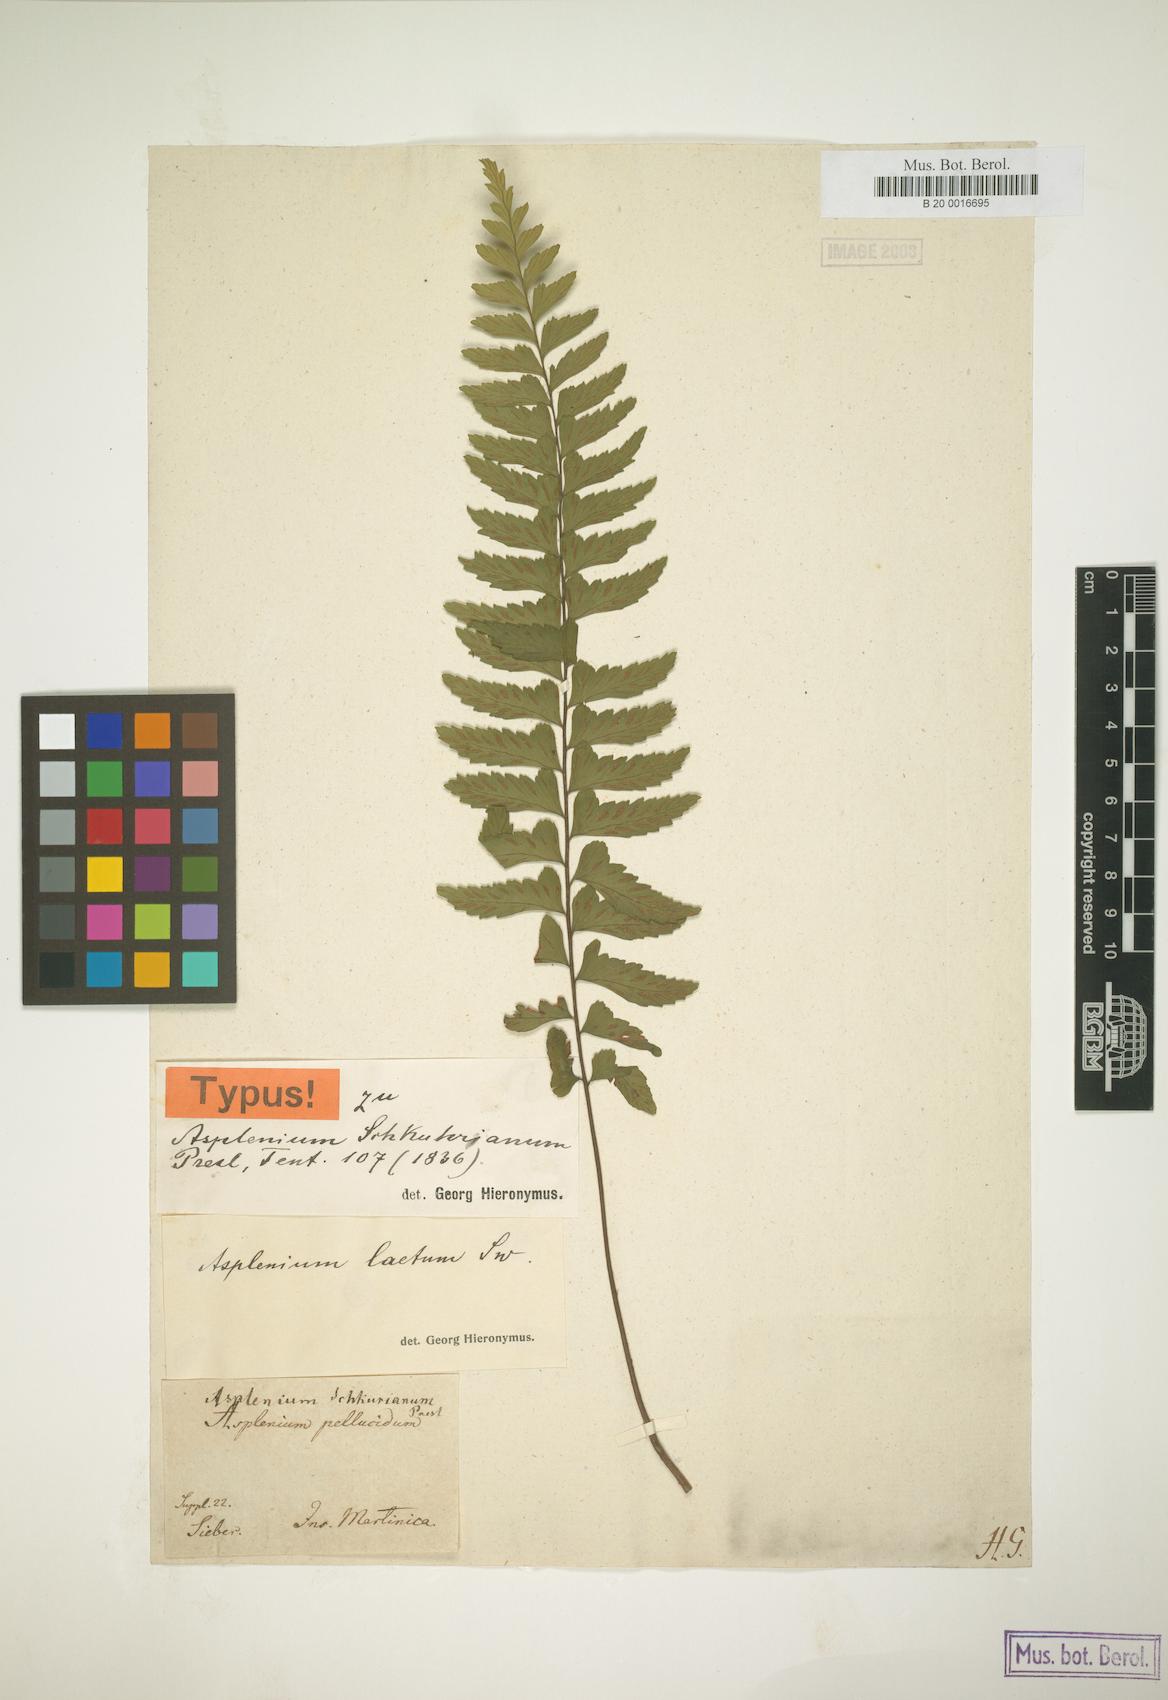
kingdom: Plantae
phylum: Tracheophyta
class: Polypodiopsida
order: Polypodiales
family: Aspleniaceae
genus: Hymenasplenium
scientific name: Hymenasplenium laetum
